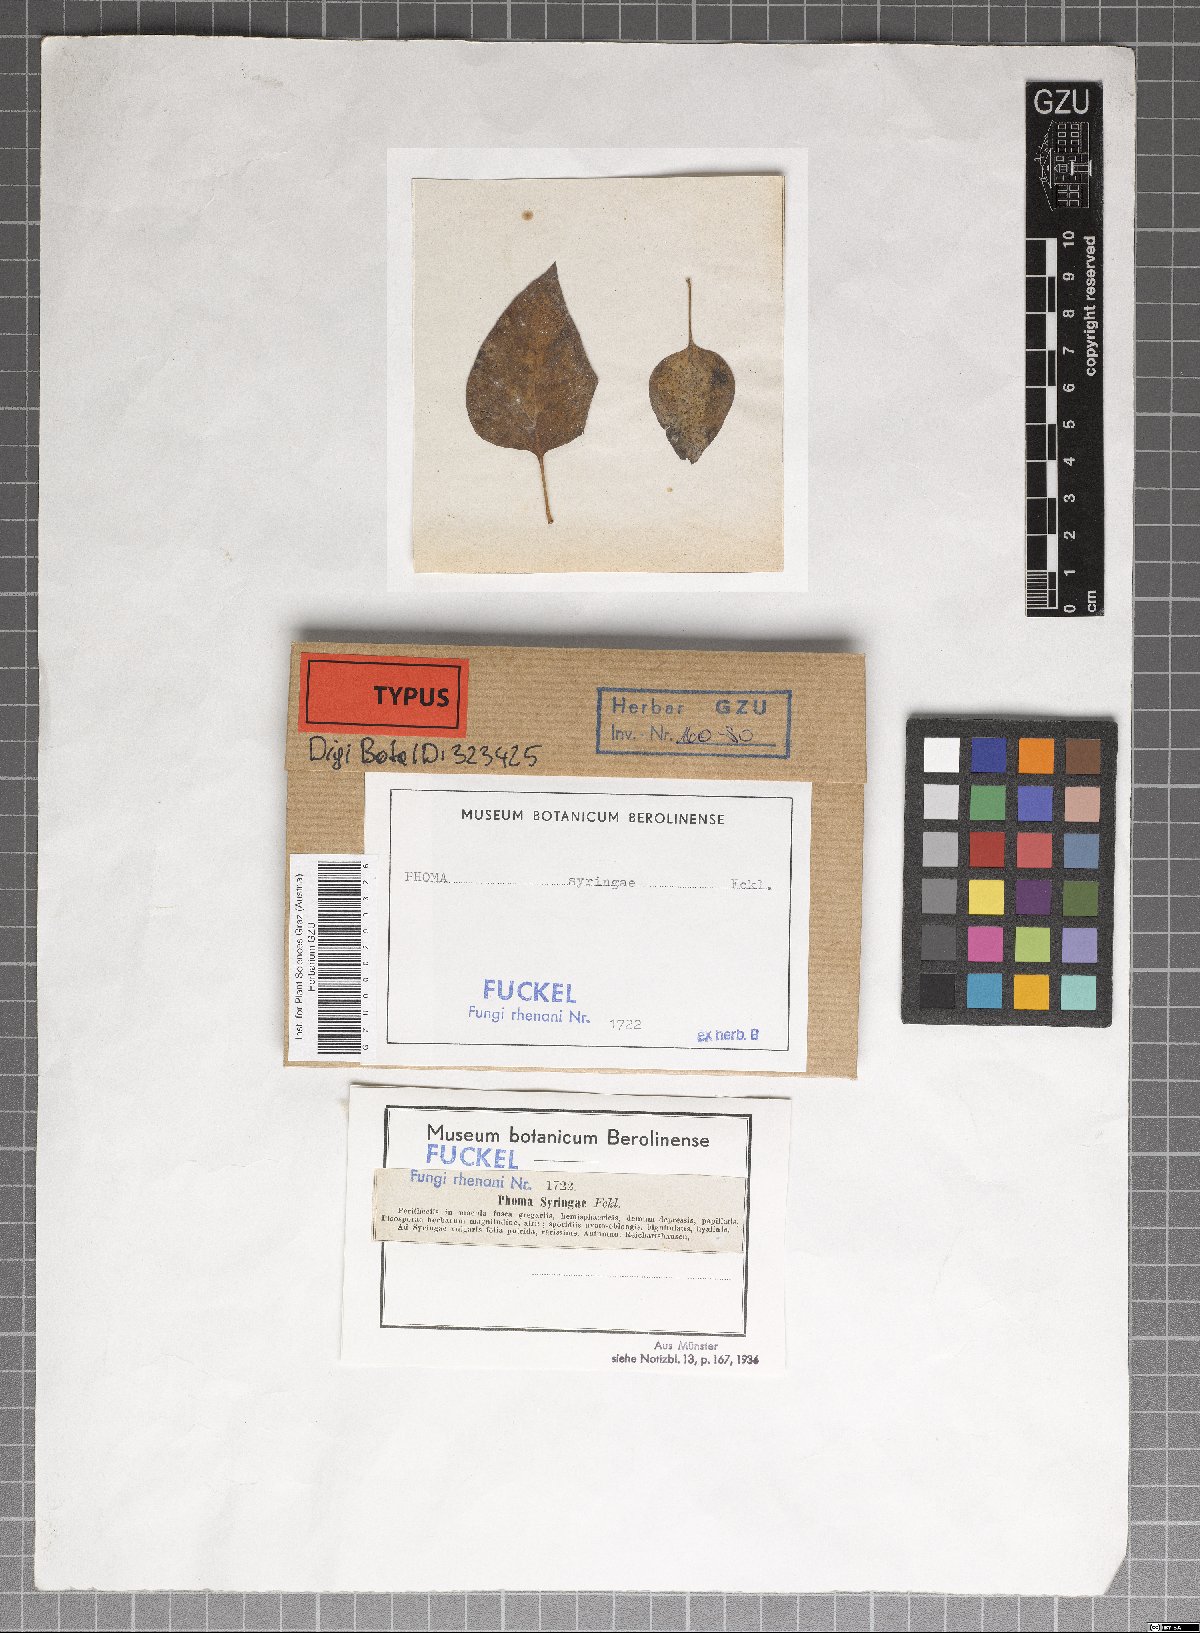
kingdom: Fungi
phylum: Ascomycota
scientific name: Ascomycota
